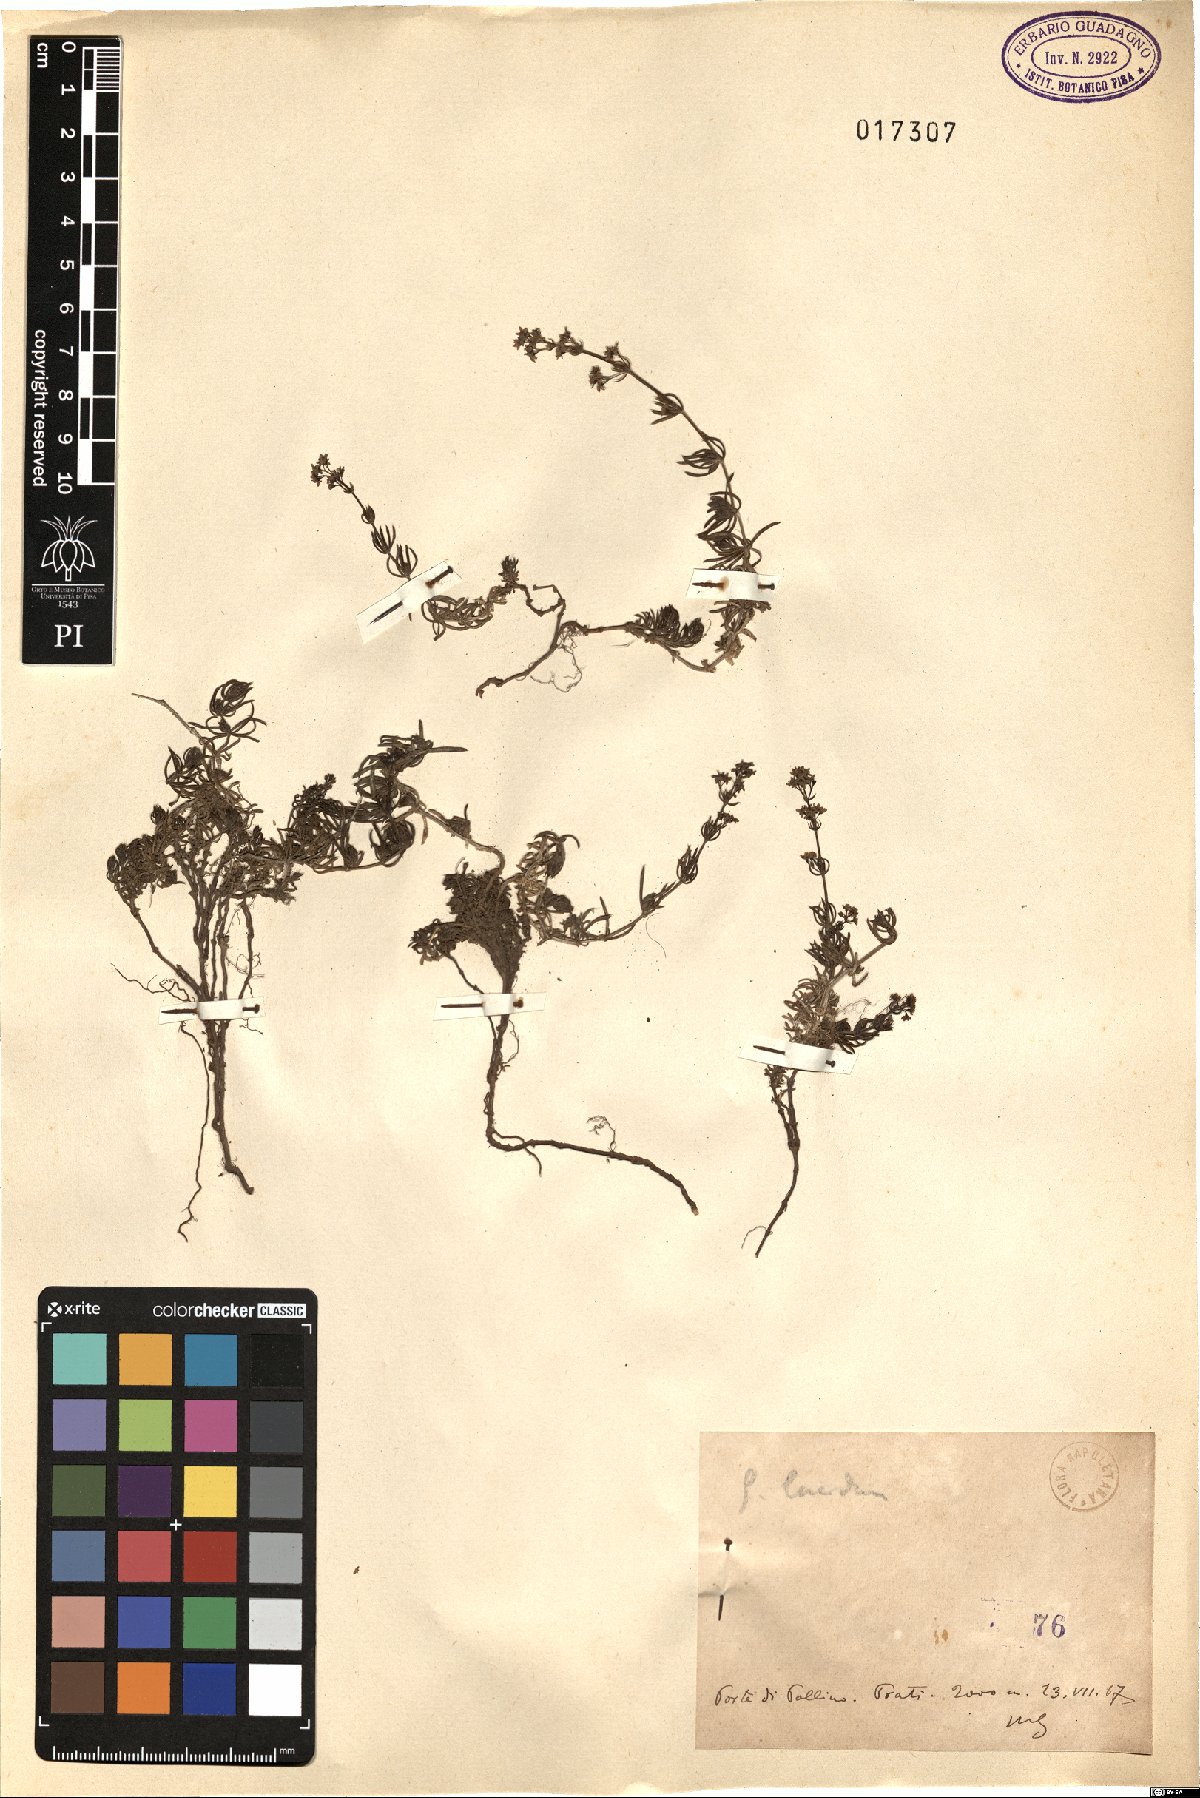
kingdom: Plantae
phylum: Tracheophyta
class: Magnoliopsida
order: Gentianales
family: Rubiaceae
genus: Galium
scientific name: Galium lucidum
